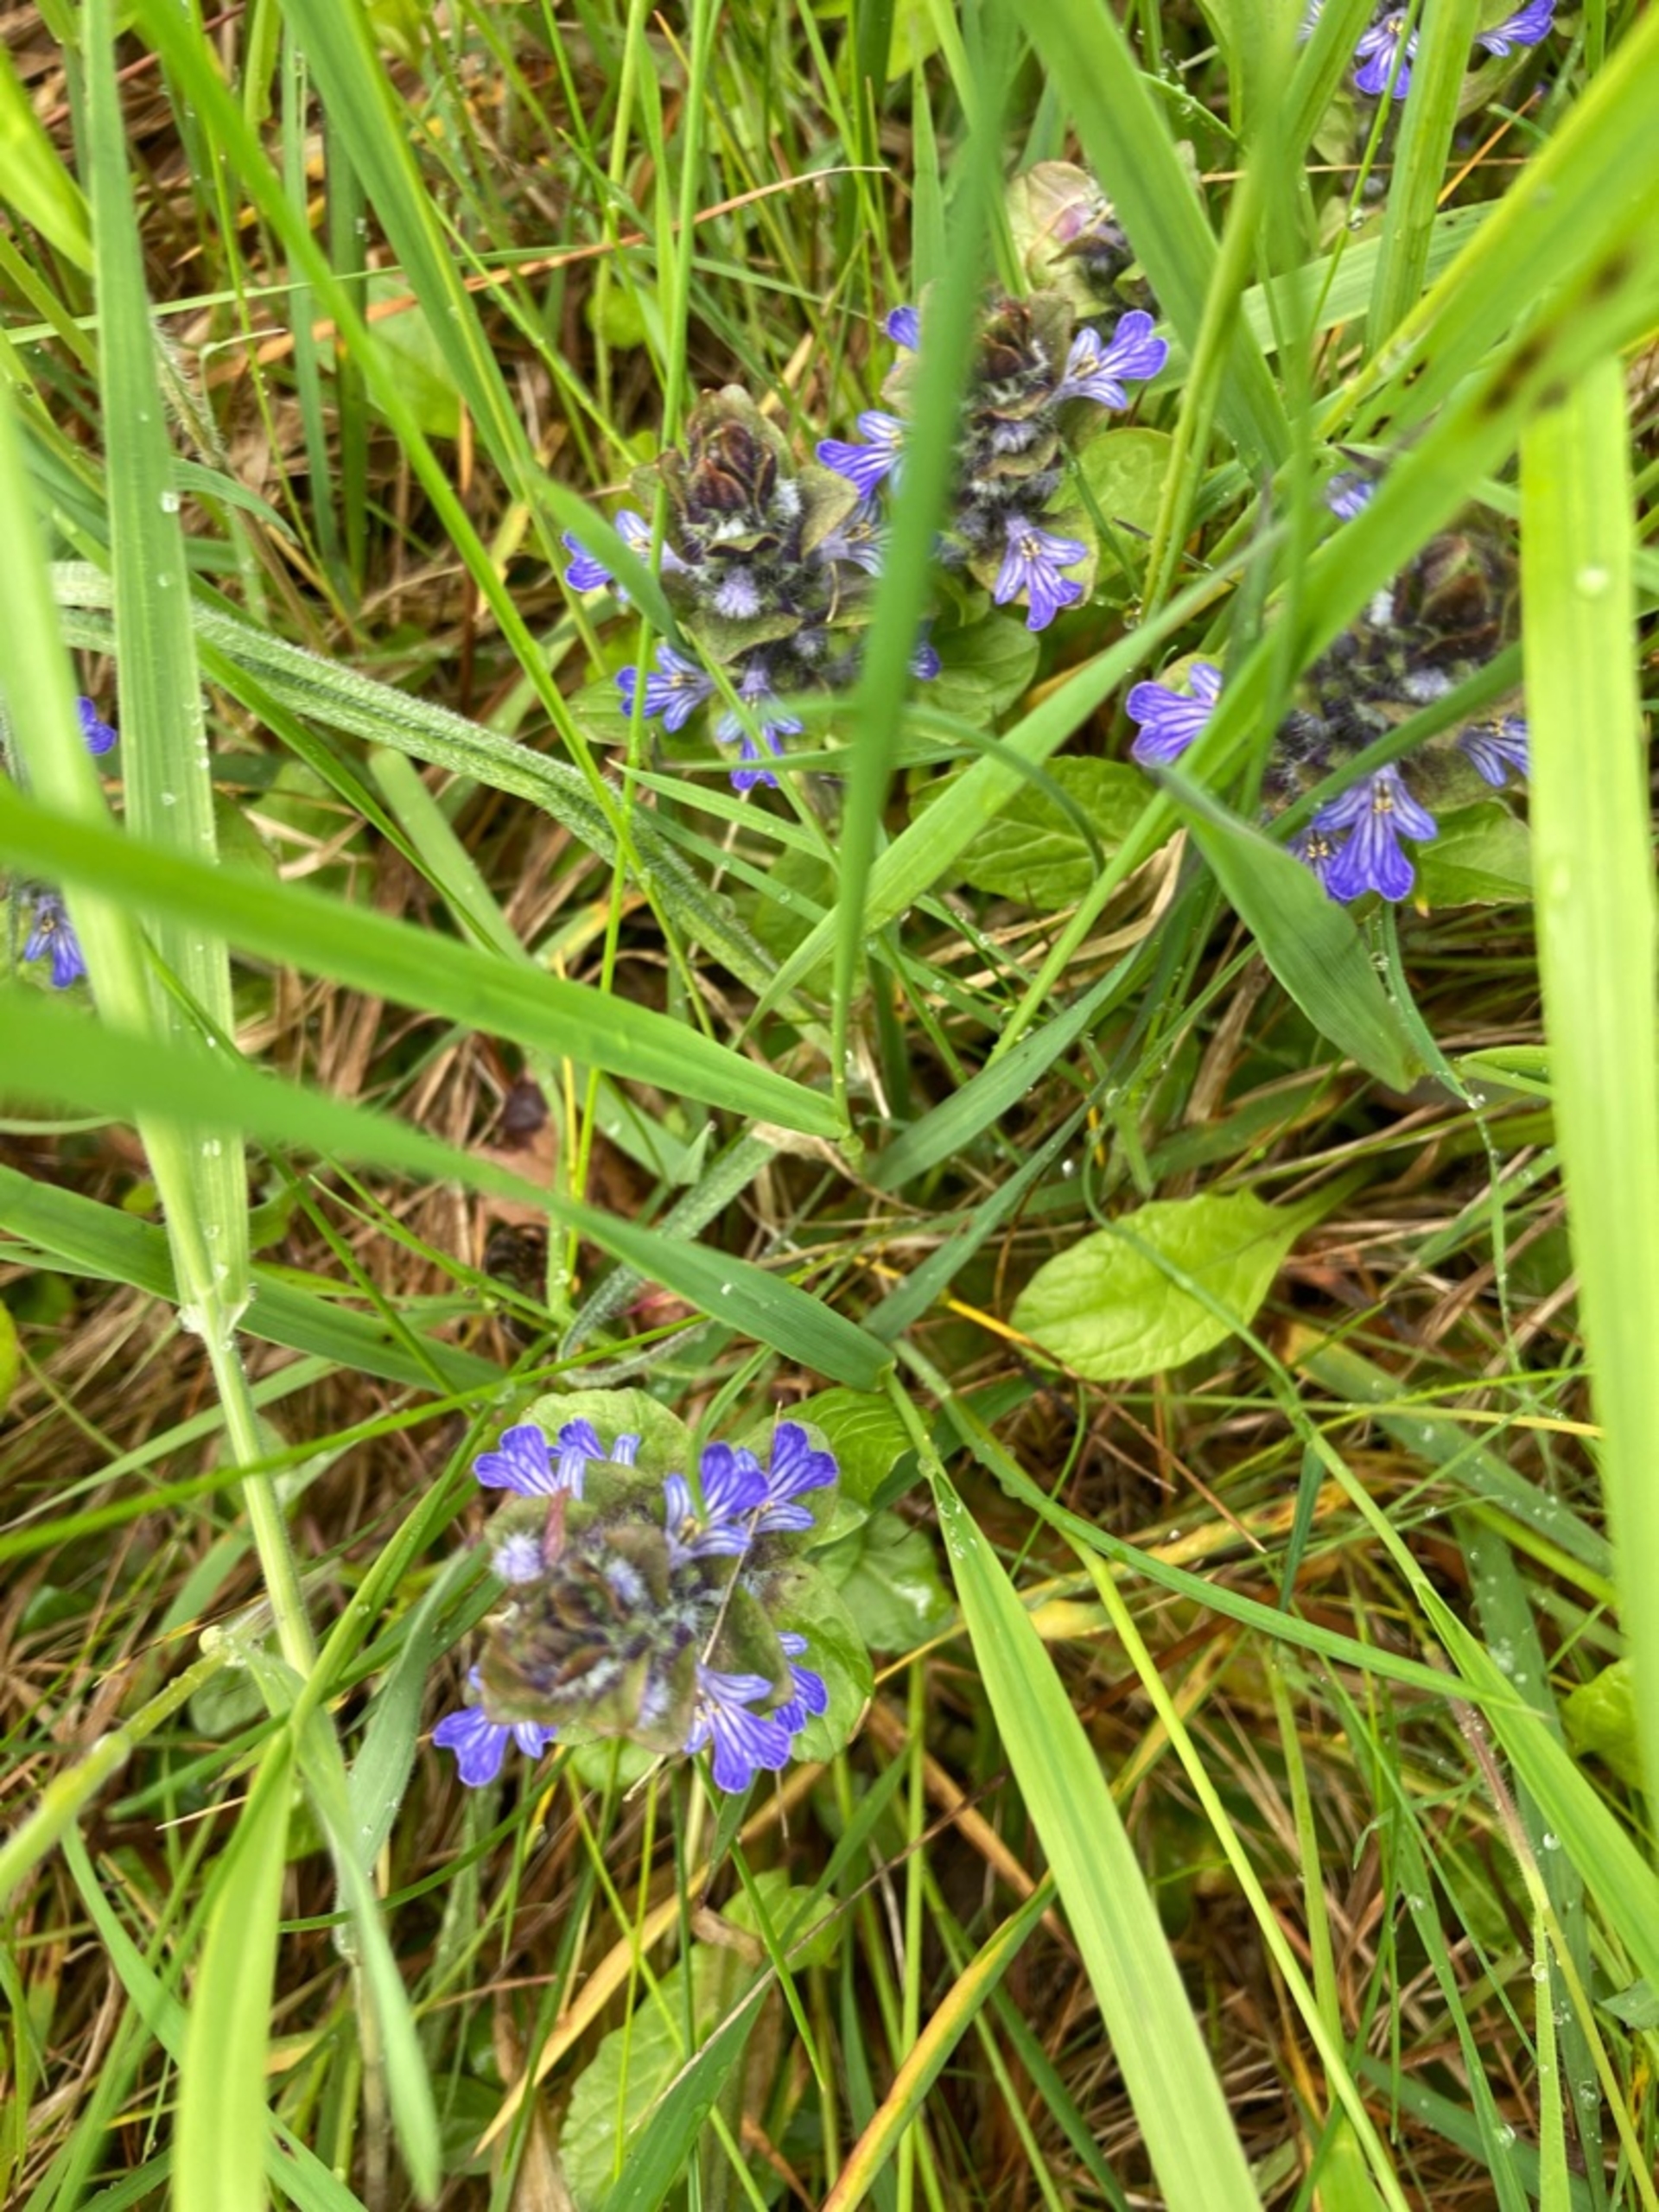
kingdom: Plantae
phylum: Tracheophyta
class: Magnoliopsida
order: Lamiales
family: Lamiaceae
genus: Ajuga
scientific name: Ajuga reptans
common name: Krybende læbeløs
